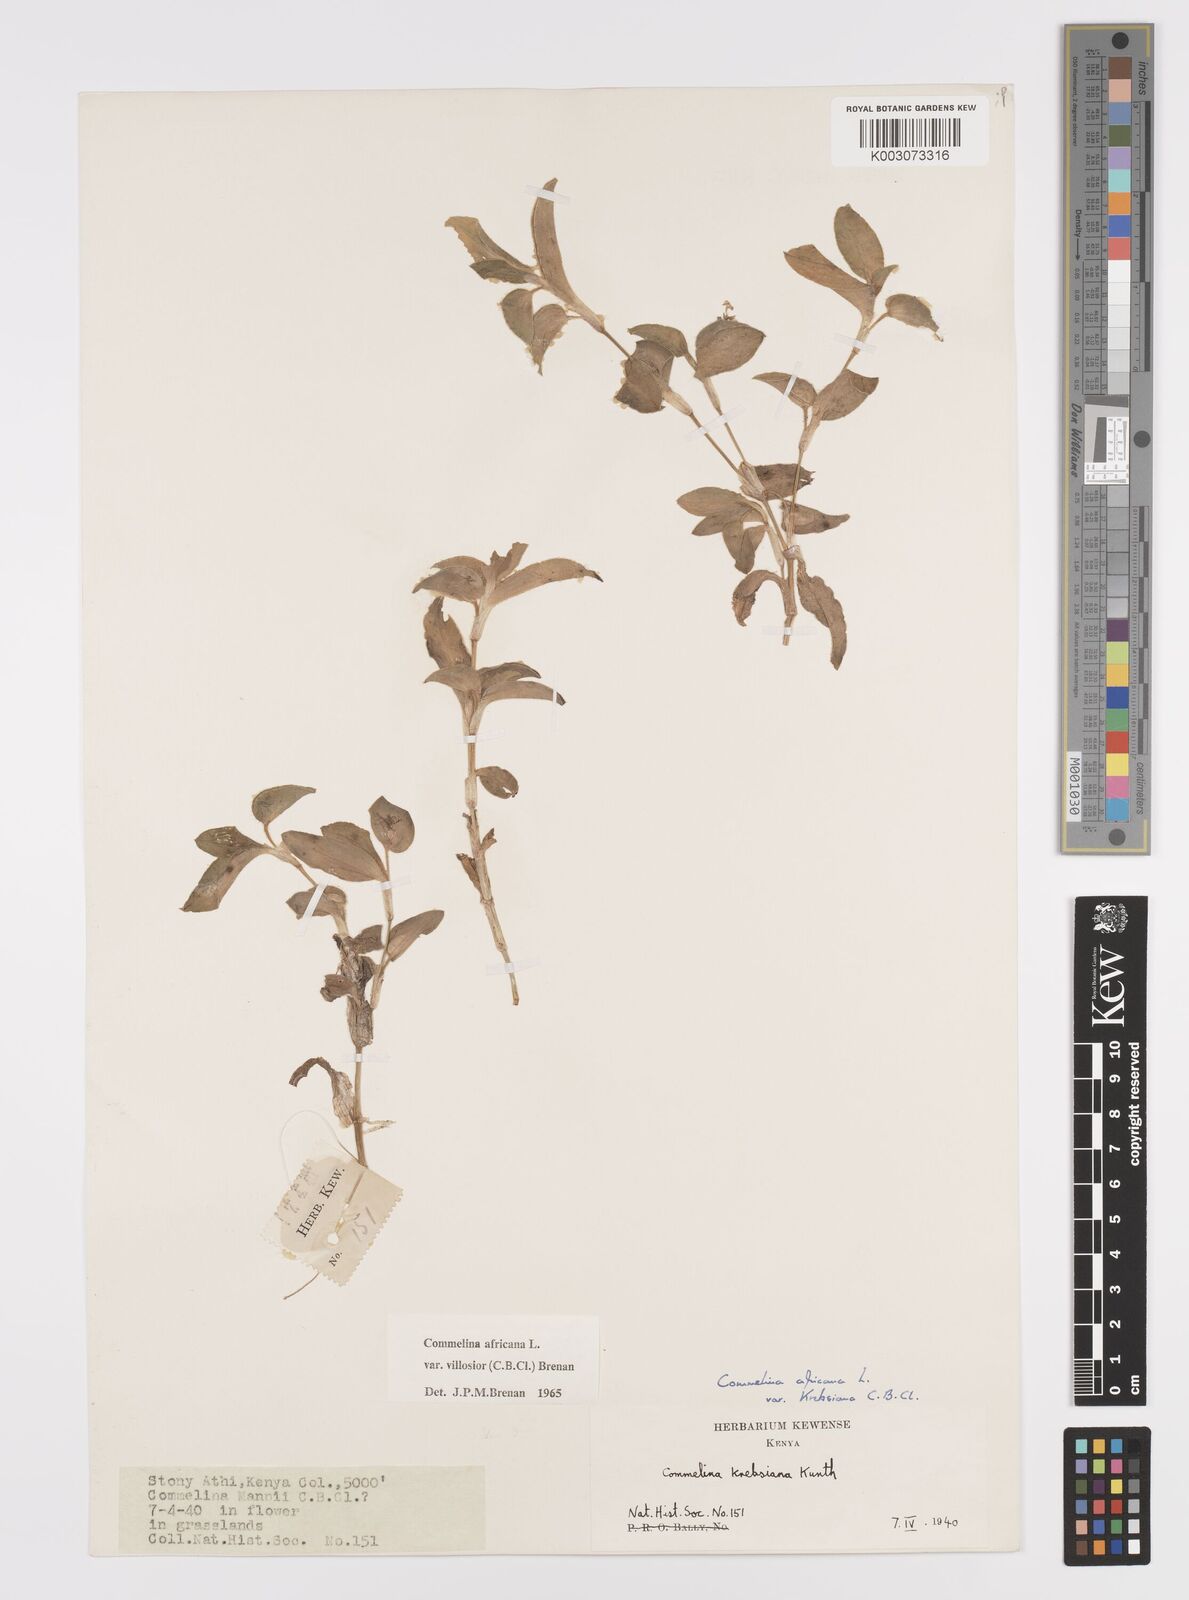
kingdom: Plantae
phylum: Tracheophyta
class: Liliopsida
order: Commelinales
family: Commelinaceae
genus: Commelina
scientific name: Commelina africana
